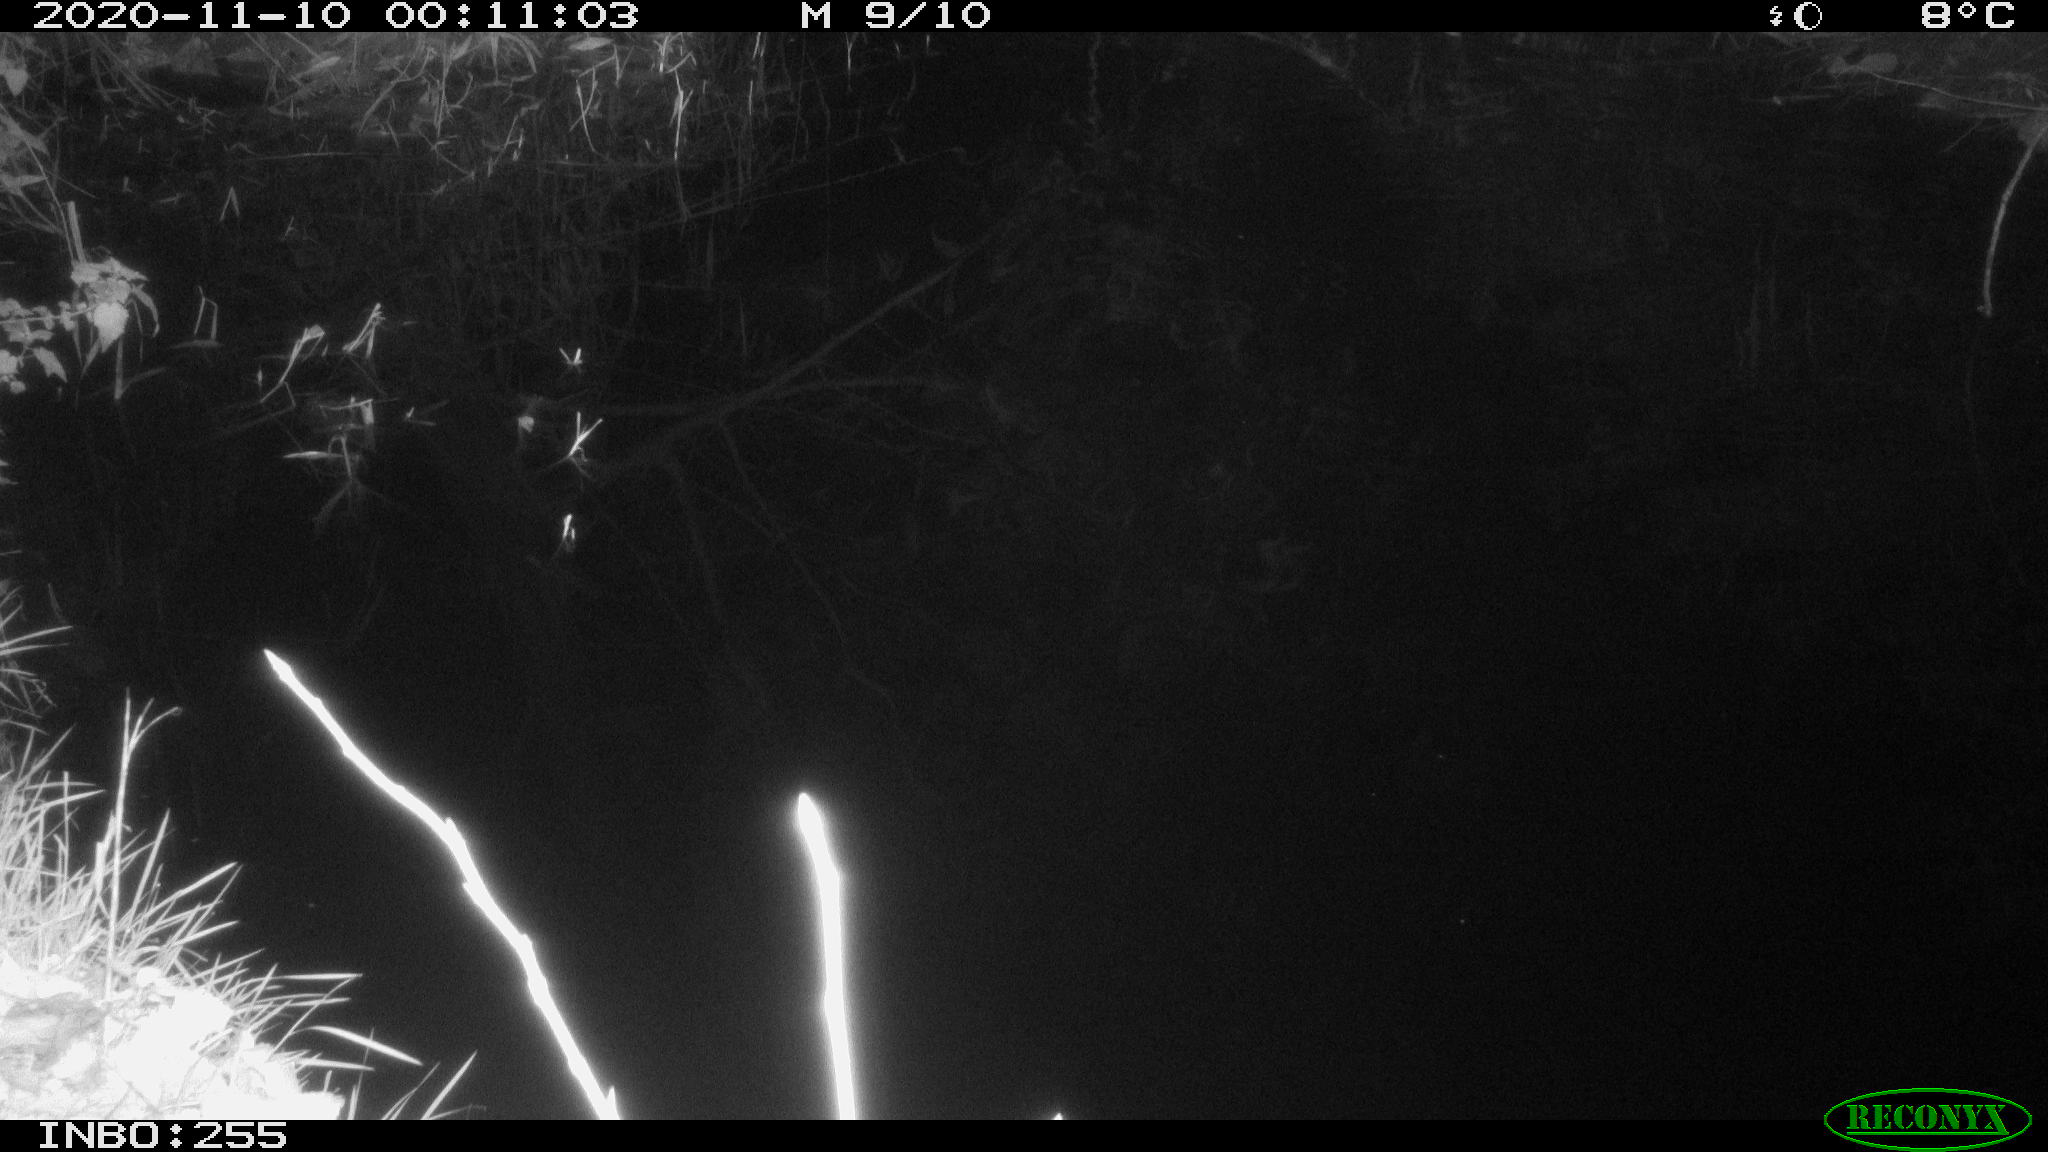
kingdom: Animalia
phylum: Chordata
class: Mammalia
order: Rodentia
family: Muridae
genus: Rattus
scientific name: Rattus norvegicus
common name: Brown rat
